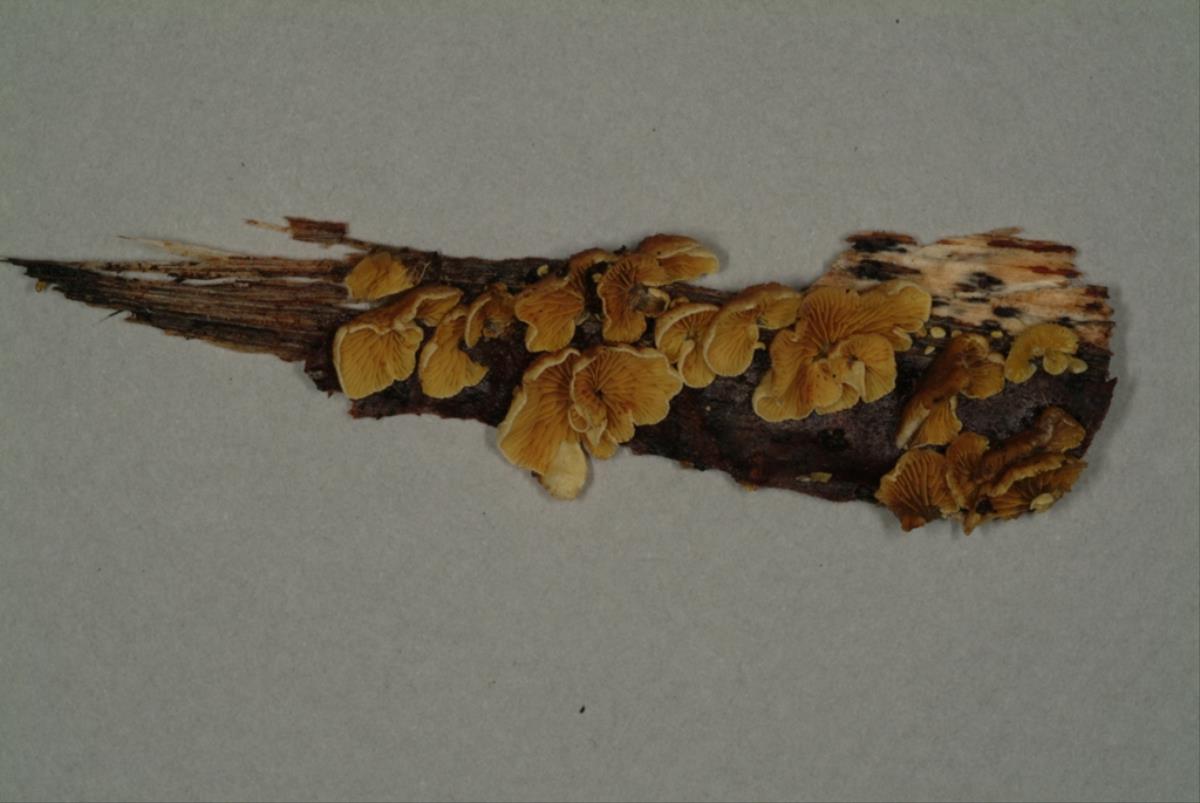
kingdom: Fungi
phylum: Basidiomycota
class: Agaricomycetes
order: Agaricales
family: Crepidotaceae
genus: Crepidotus
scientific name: Crepidotus aureus
